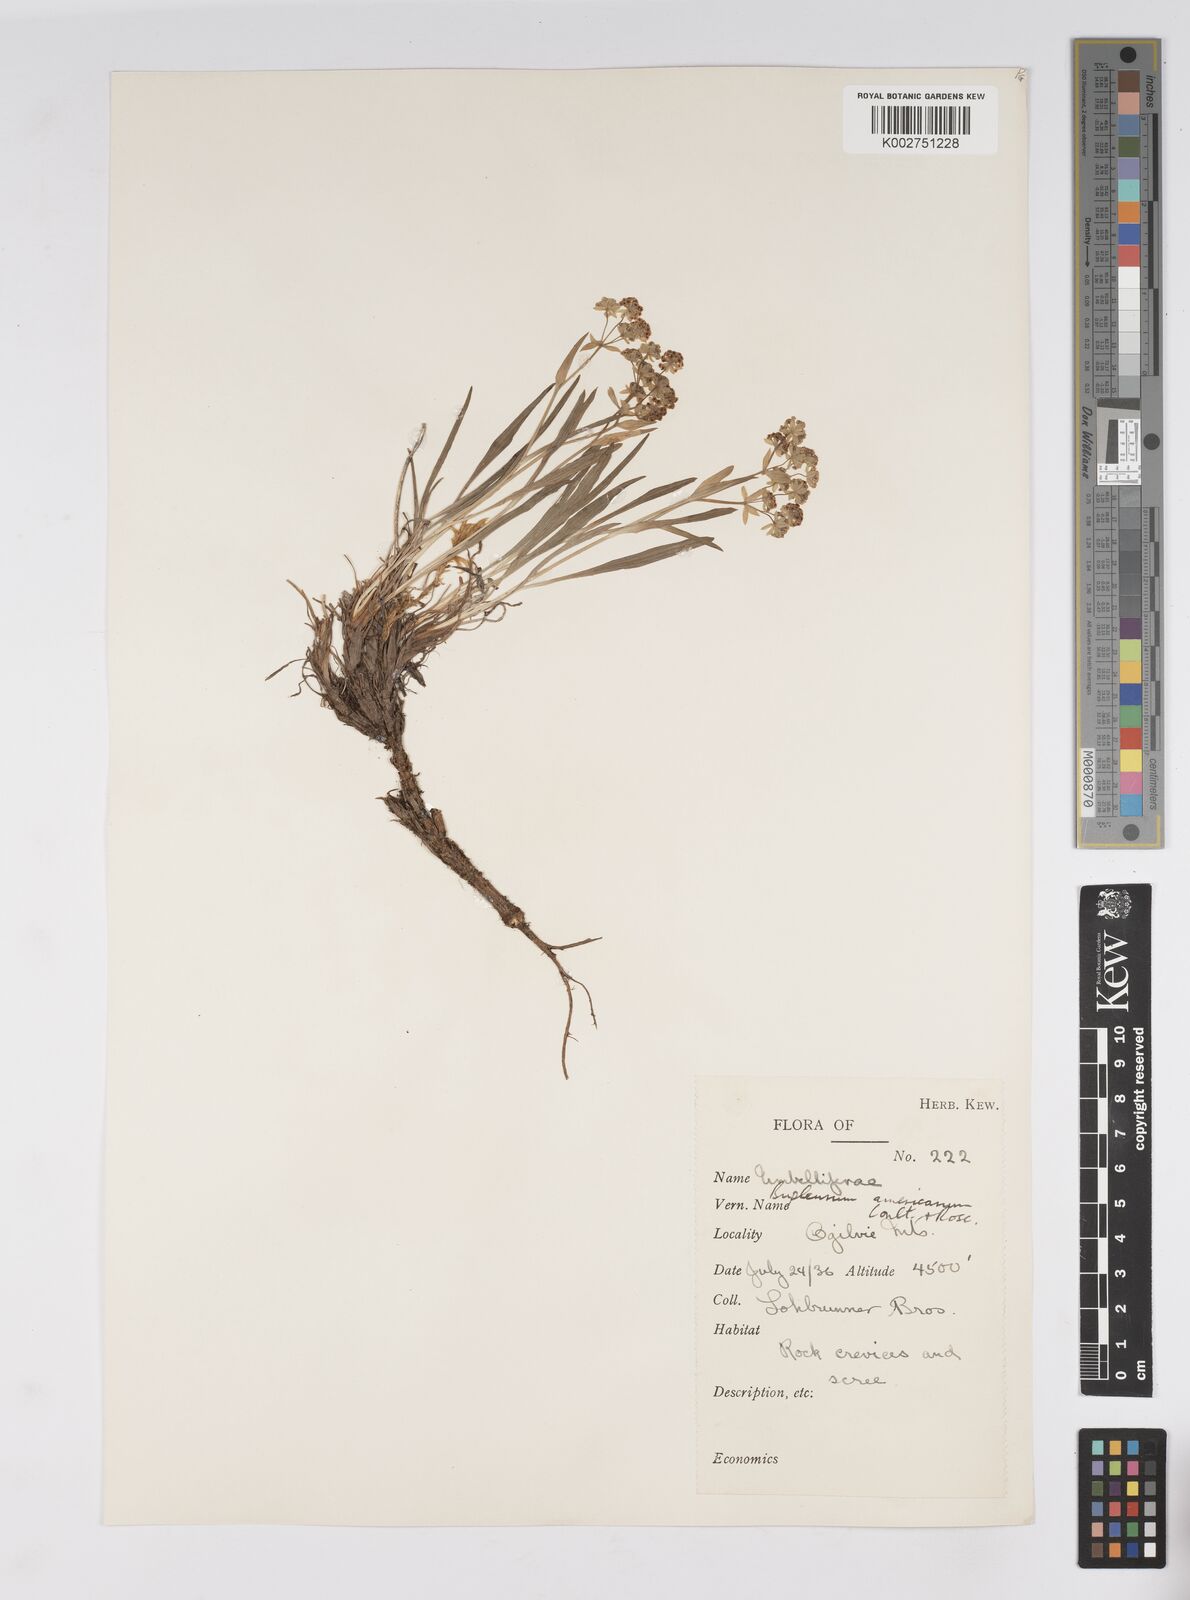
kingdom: Plantae
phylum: Tracheophyta
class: Magnoliopsida
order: Apiales
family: Apiaceae
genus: Bupleurum
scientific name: Bupleurum americanum
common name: American thoroughwax
